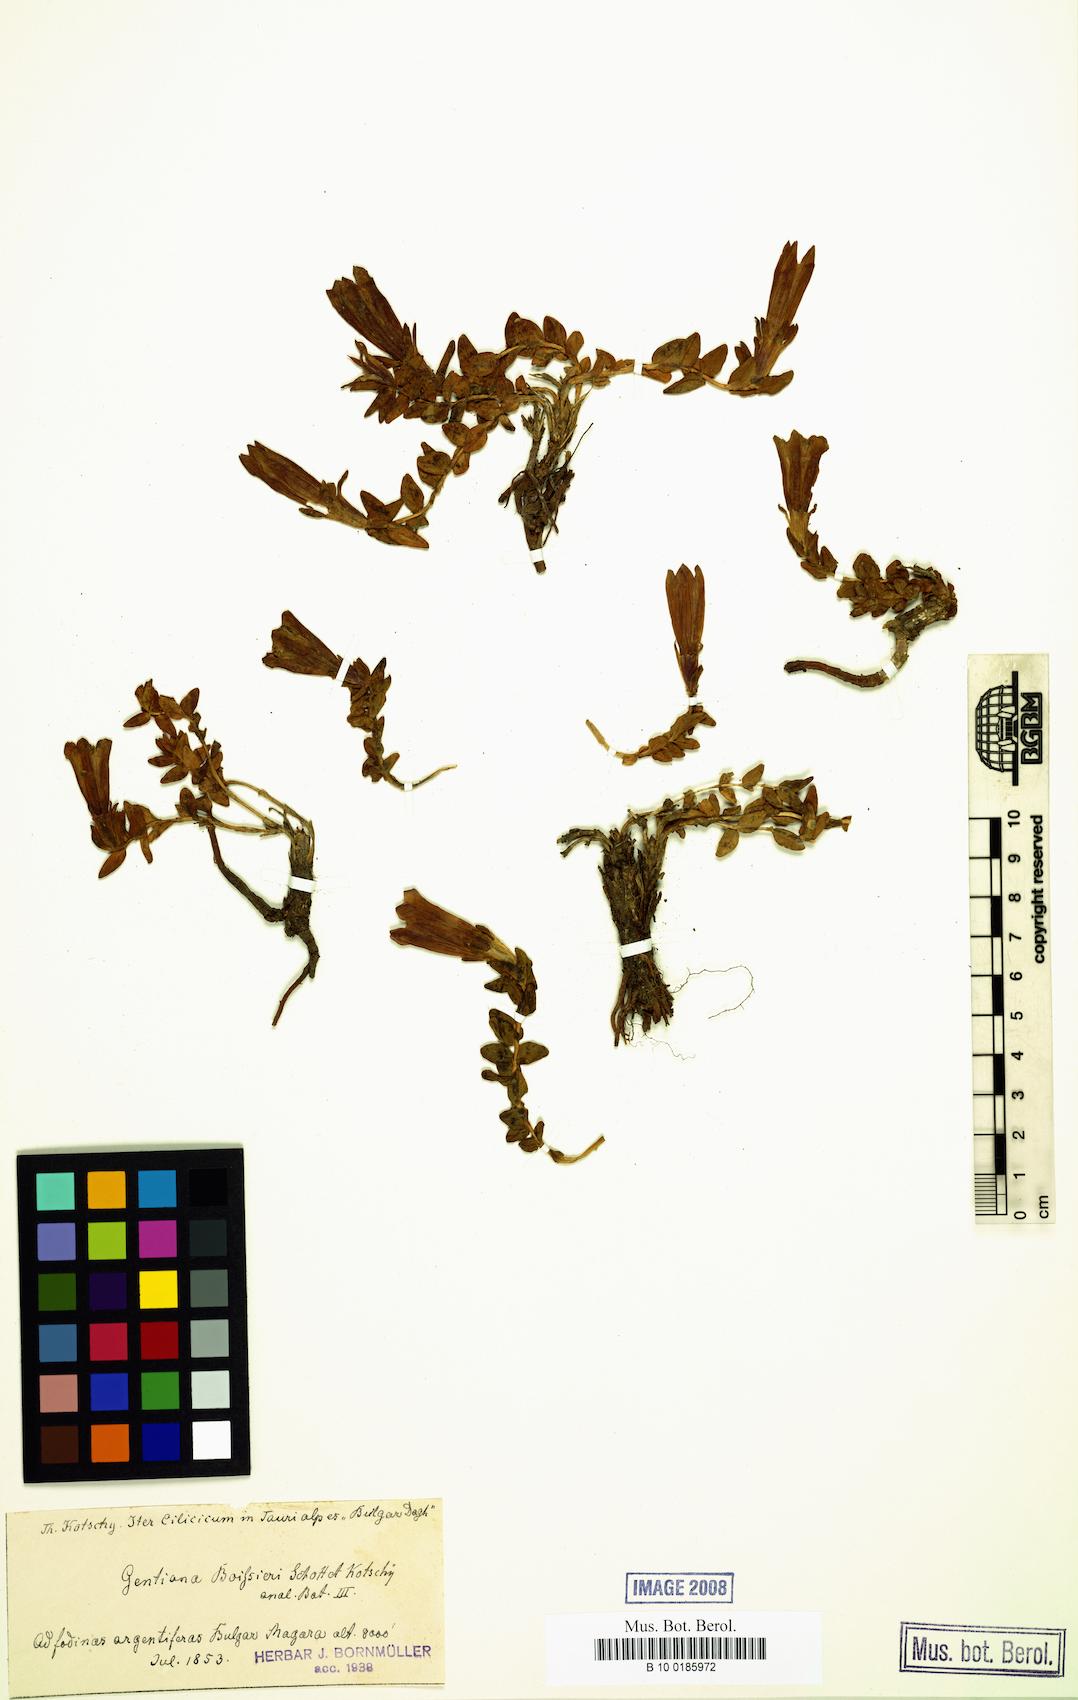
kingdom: Plantae
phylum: Tracheophyta
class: Magnoliopsida
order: Gentianales
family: Gentianaceae
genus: Gentiana
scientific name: Gentiana boissieri
